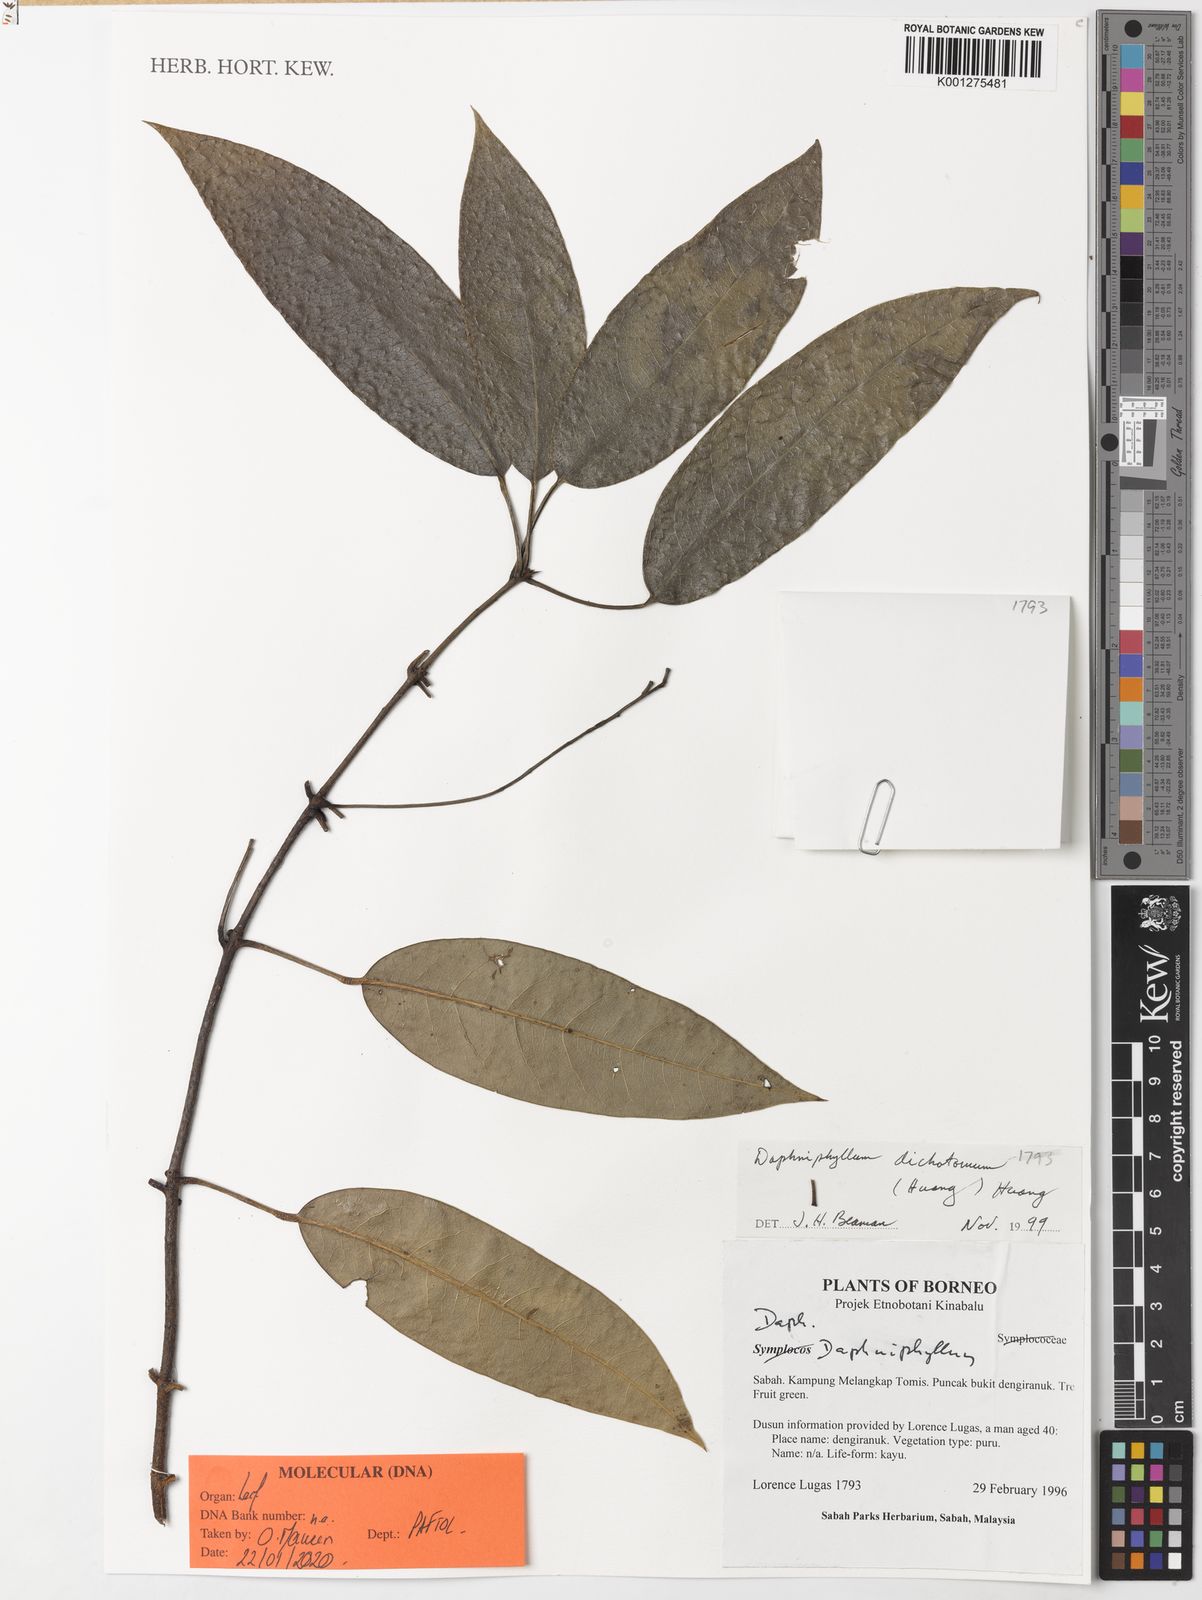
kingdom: Plantae
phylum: Tracheophyta
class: Magnoliopsida
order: Saxifragales
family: Daphniphyllaceae
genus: Daphniphyllum
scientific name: Daphniphyllum dichotomum
